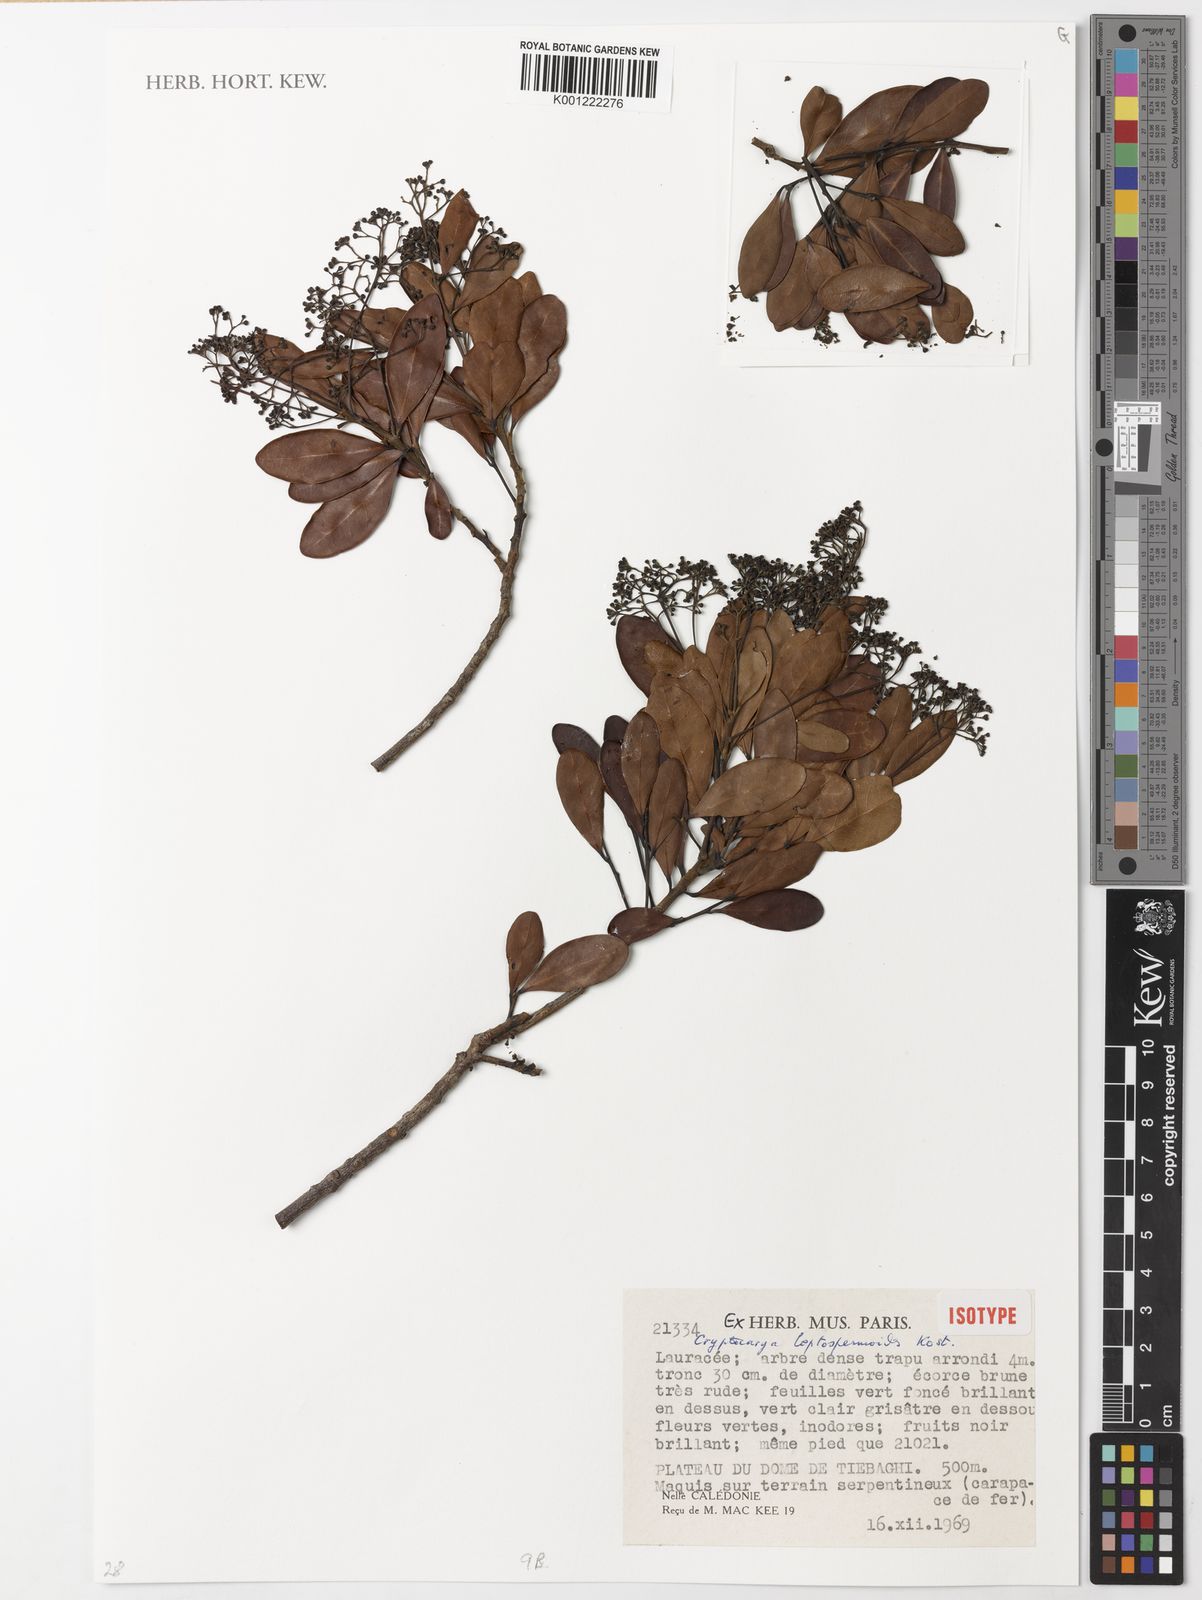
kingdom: Plantae
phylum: Tracheophyta
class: Magnoliopsida
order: Laurales
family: Lauraceae
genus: Cryptocarya
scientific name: Cryptocarya leptospermoides
